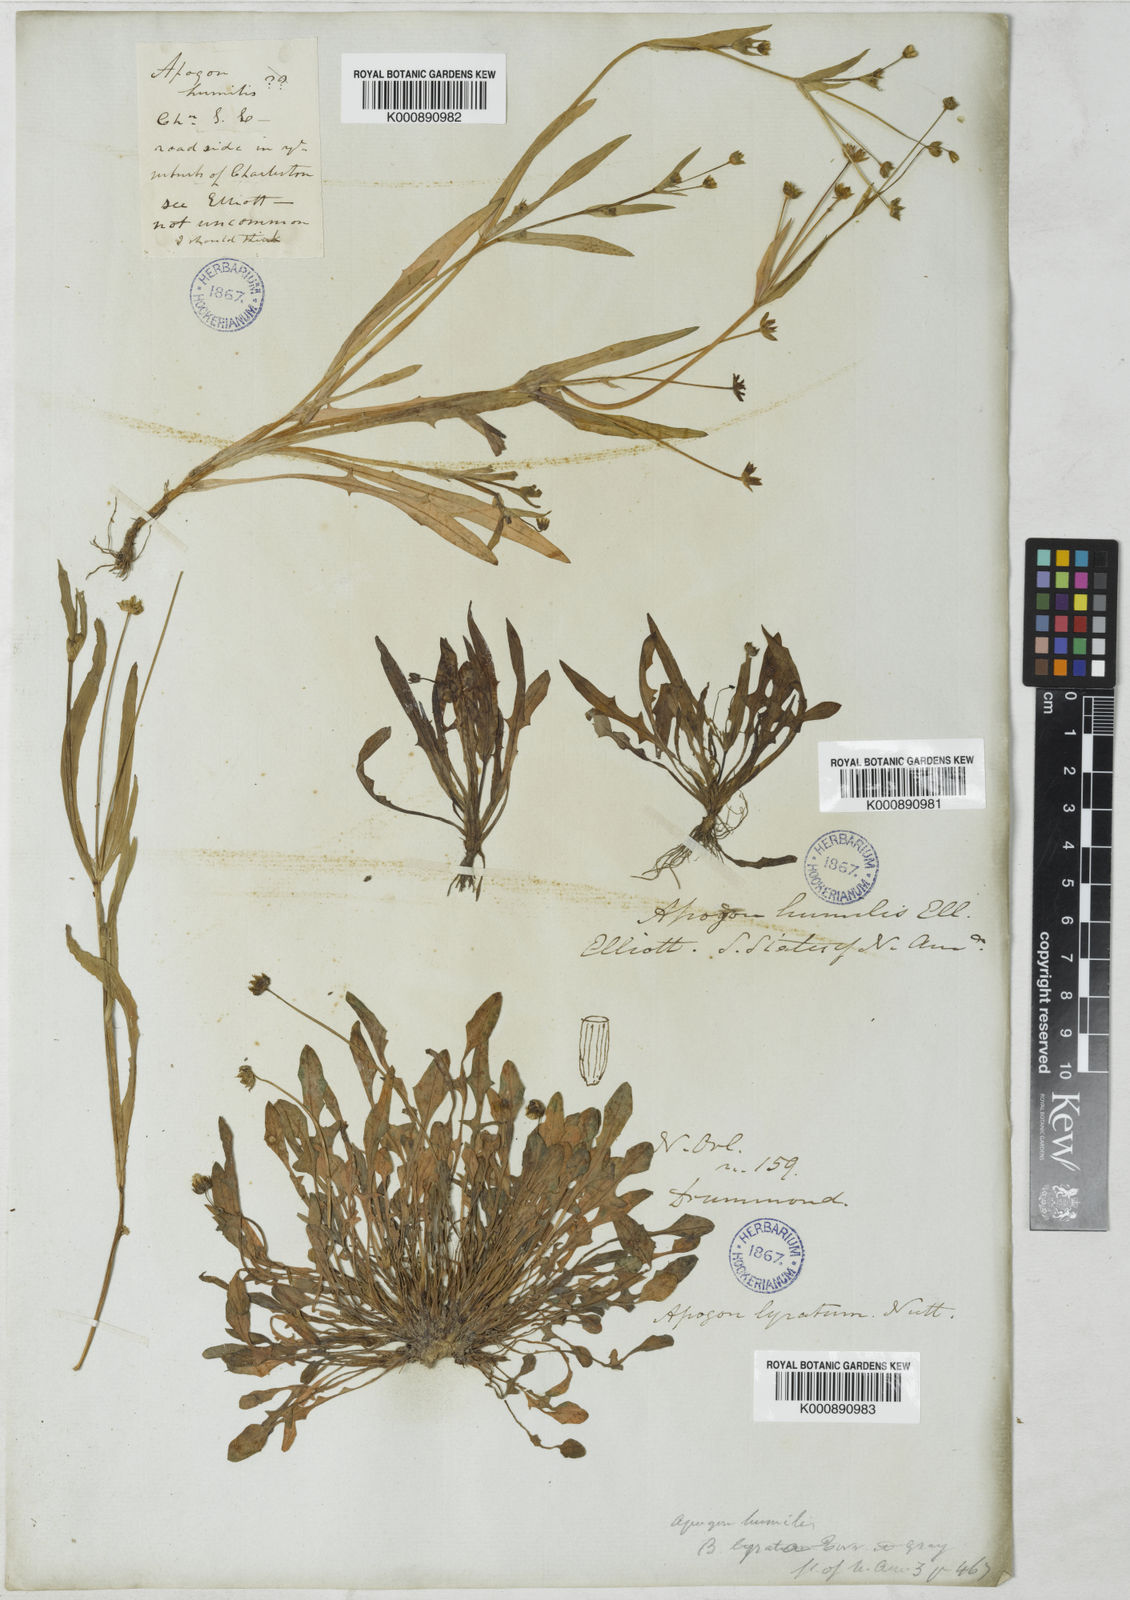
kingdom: Plantae
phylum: Tracheophyta
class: Magnoliopsida
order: Asterales
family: Asteraceae
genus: Krigia
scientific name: Krigia cespitosa
